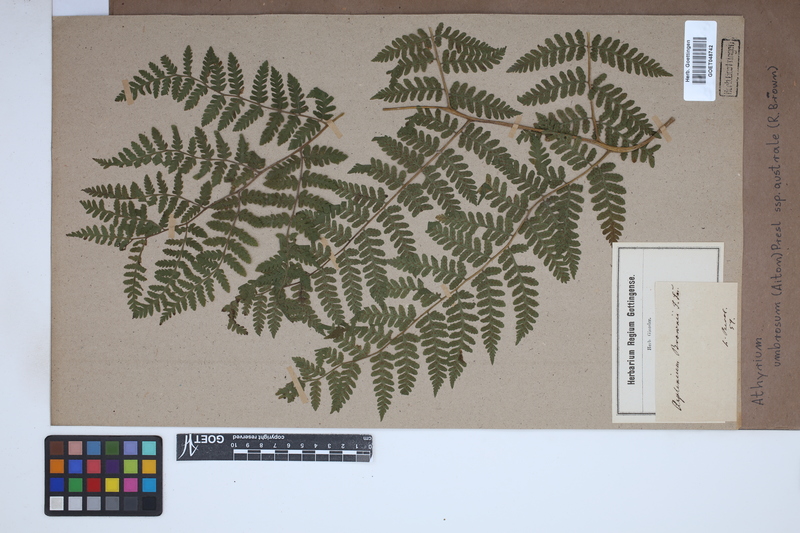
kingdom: Plantae
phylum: Tracheophyta
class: Polypodiopsida
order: Polypodiales
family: Athyriaceae
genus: Diplazium
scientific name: Diplazium australe
